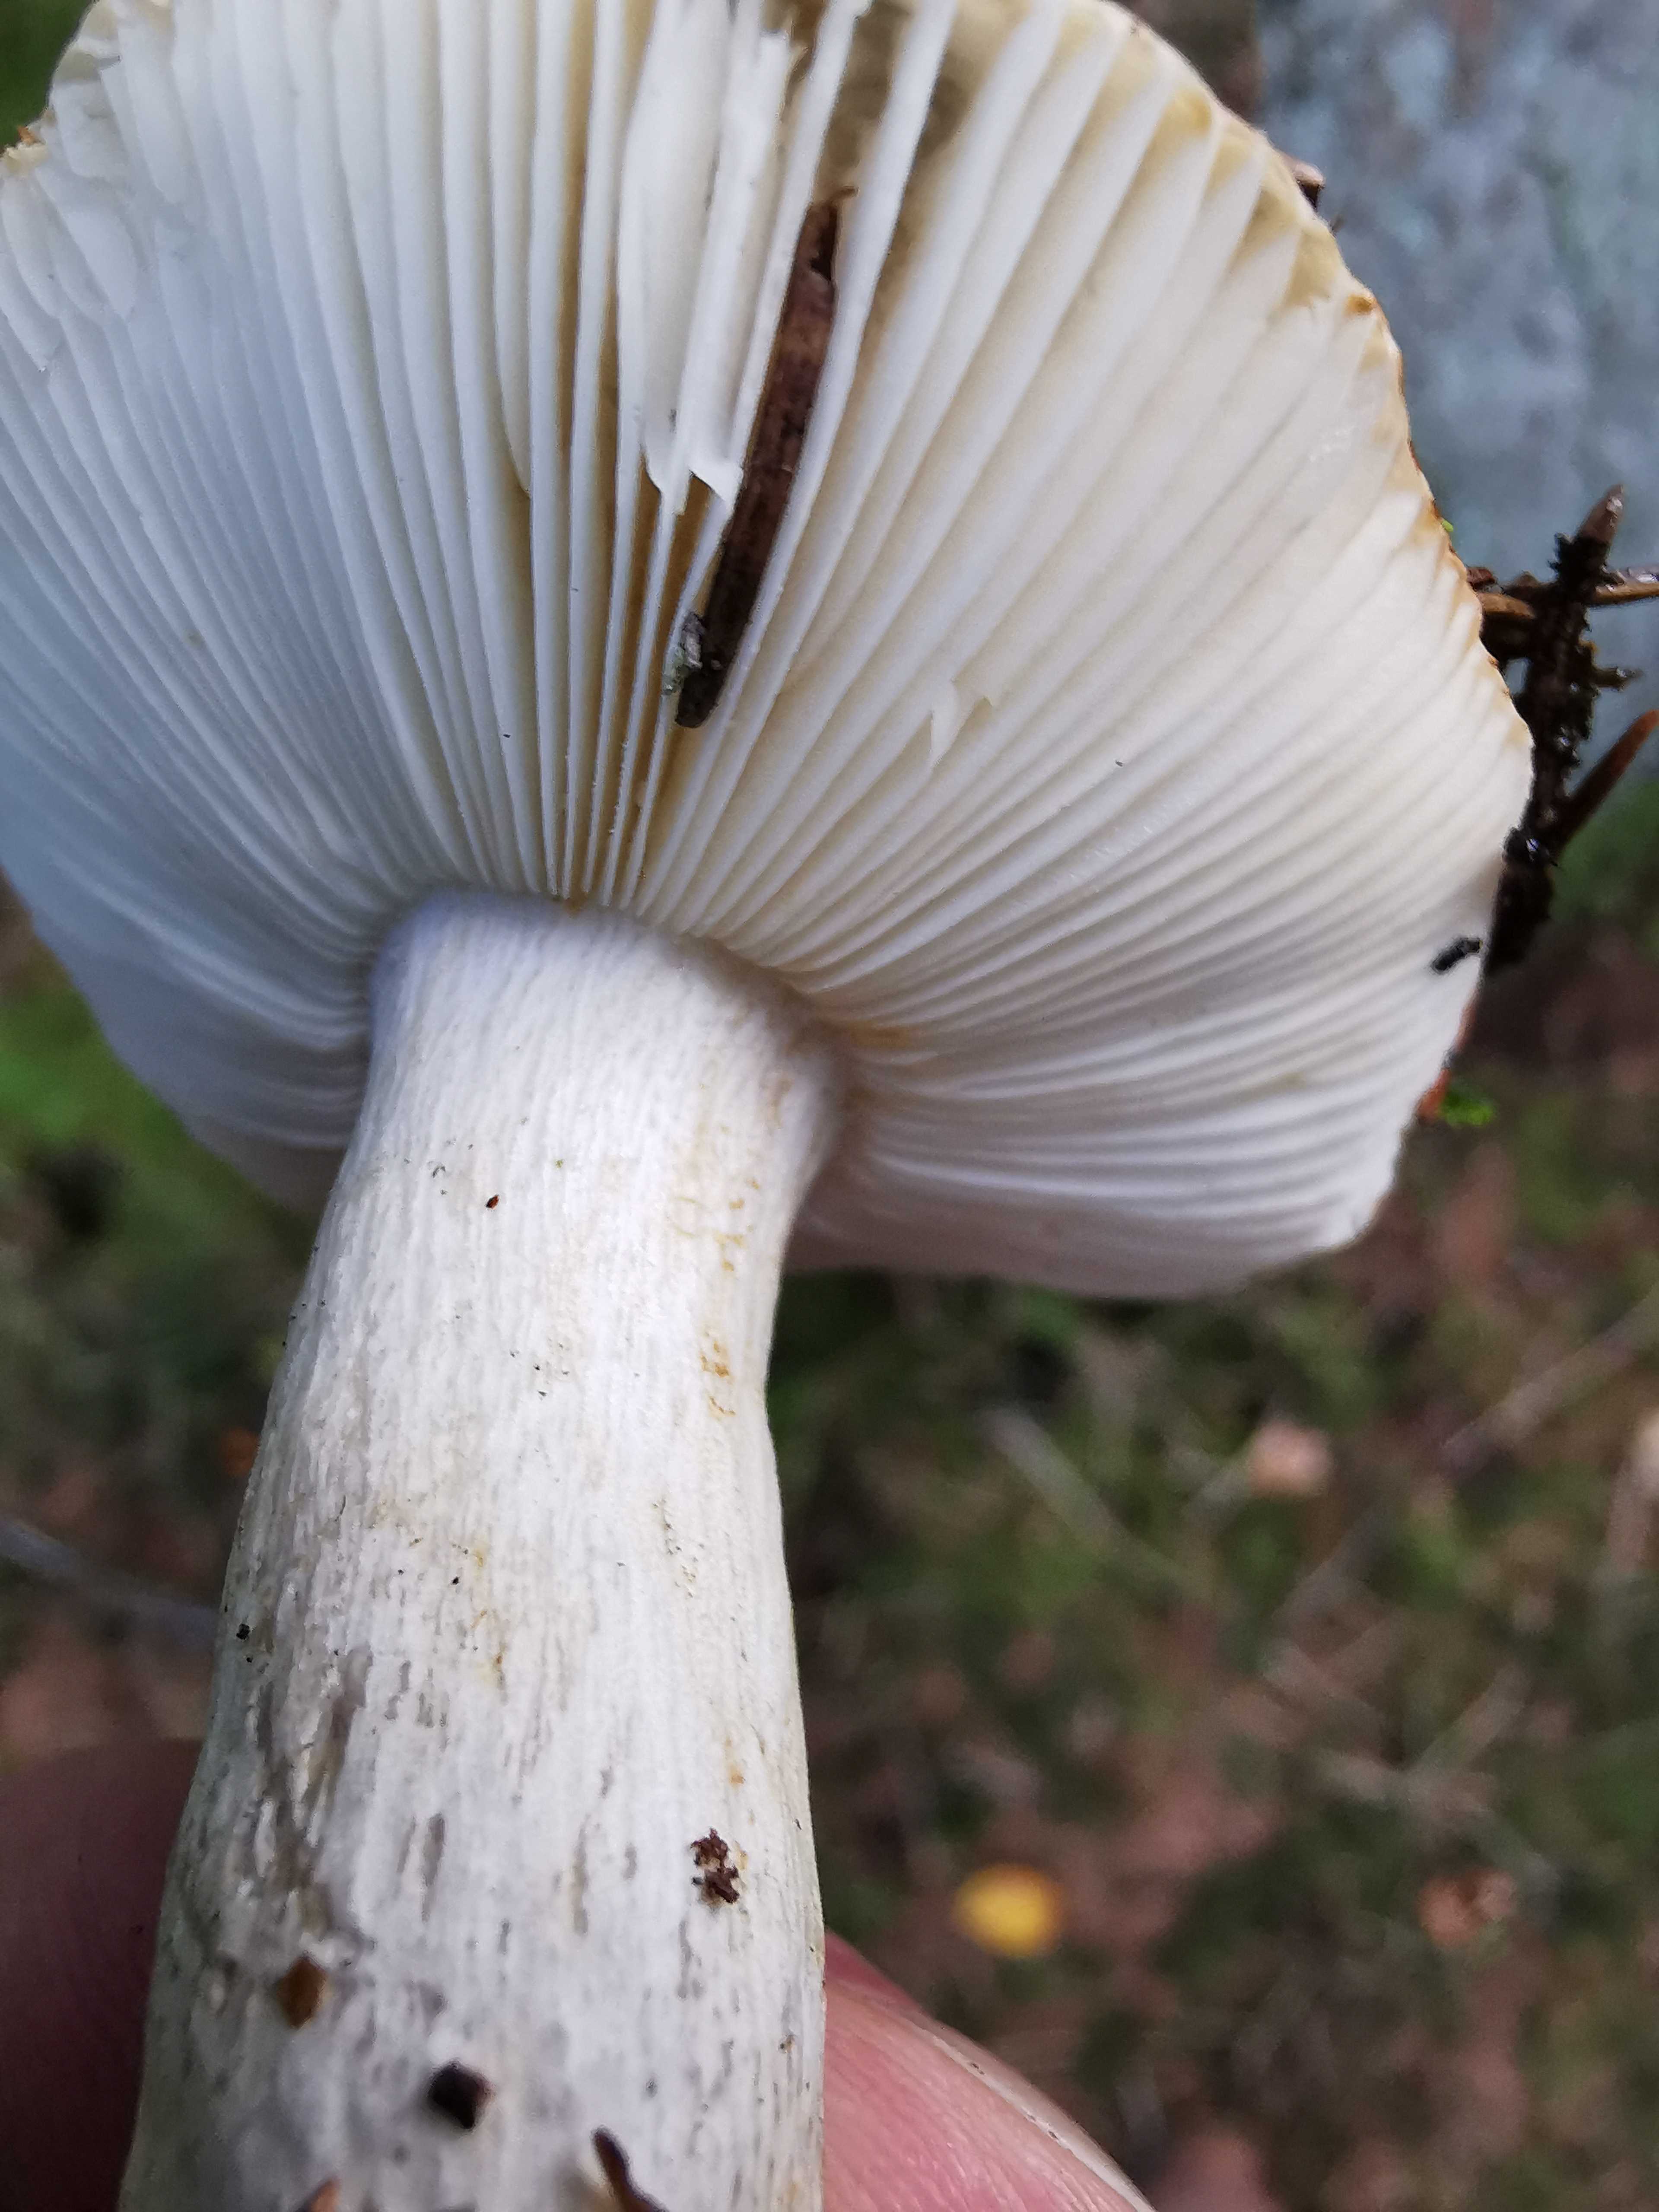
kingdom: Fungi
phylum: Basidiomycota
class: Agaricomycetes
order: Russulales
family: Russulaceae
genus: Russula
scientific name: Russula ochroleuca
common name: okkergul skørhat
